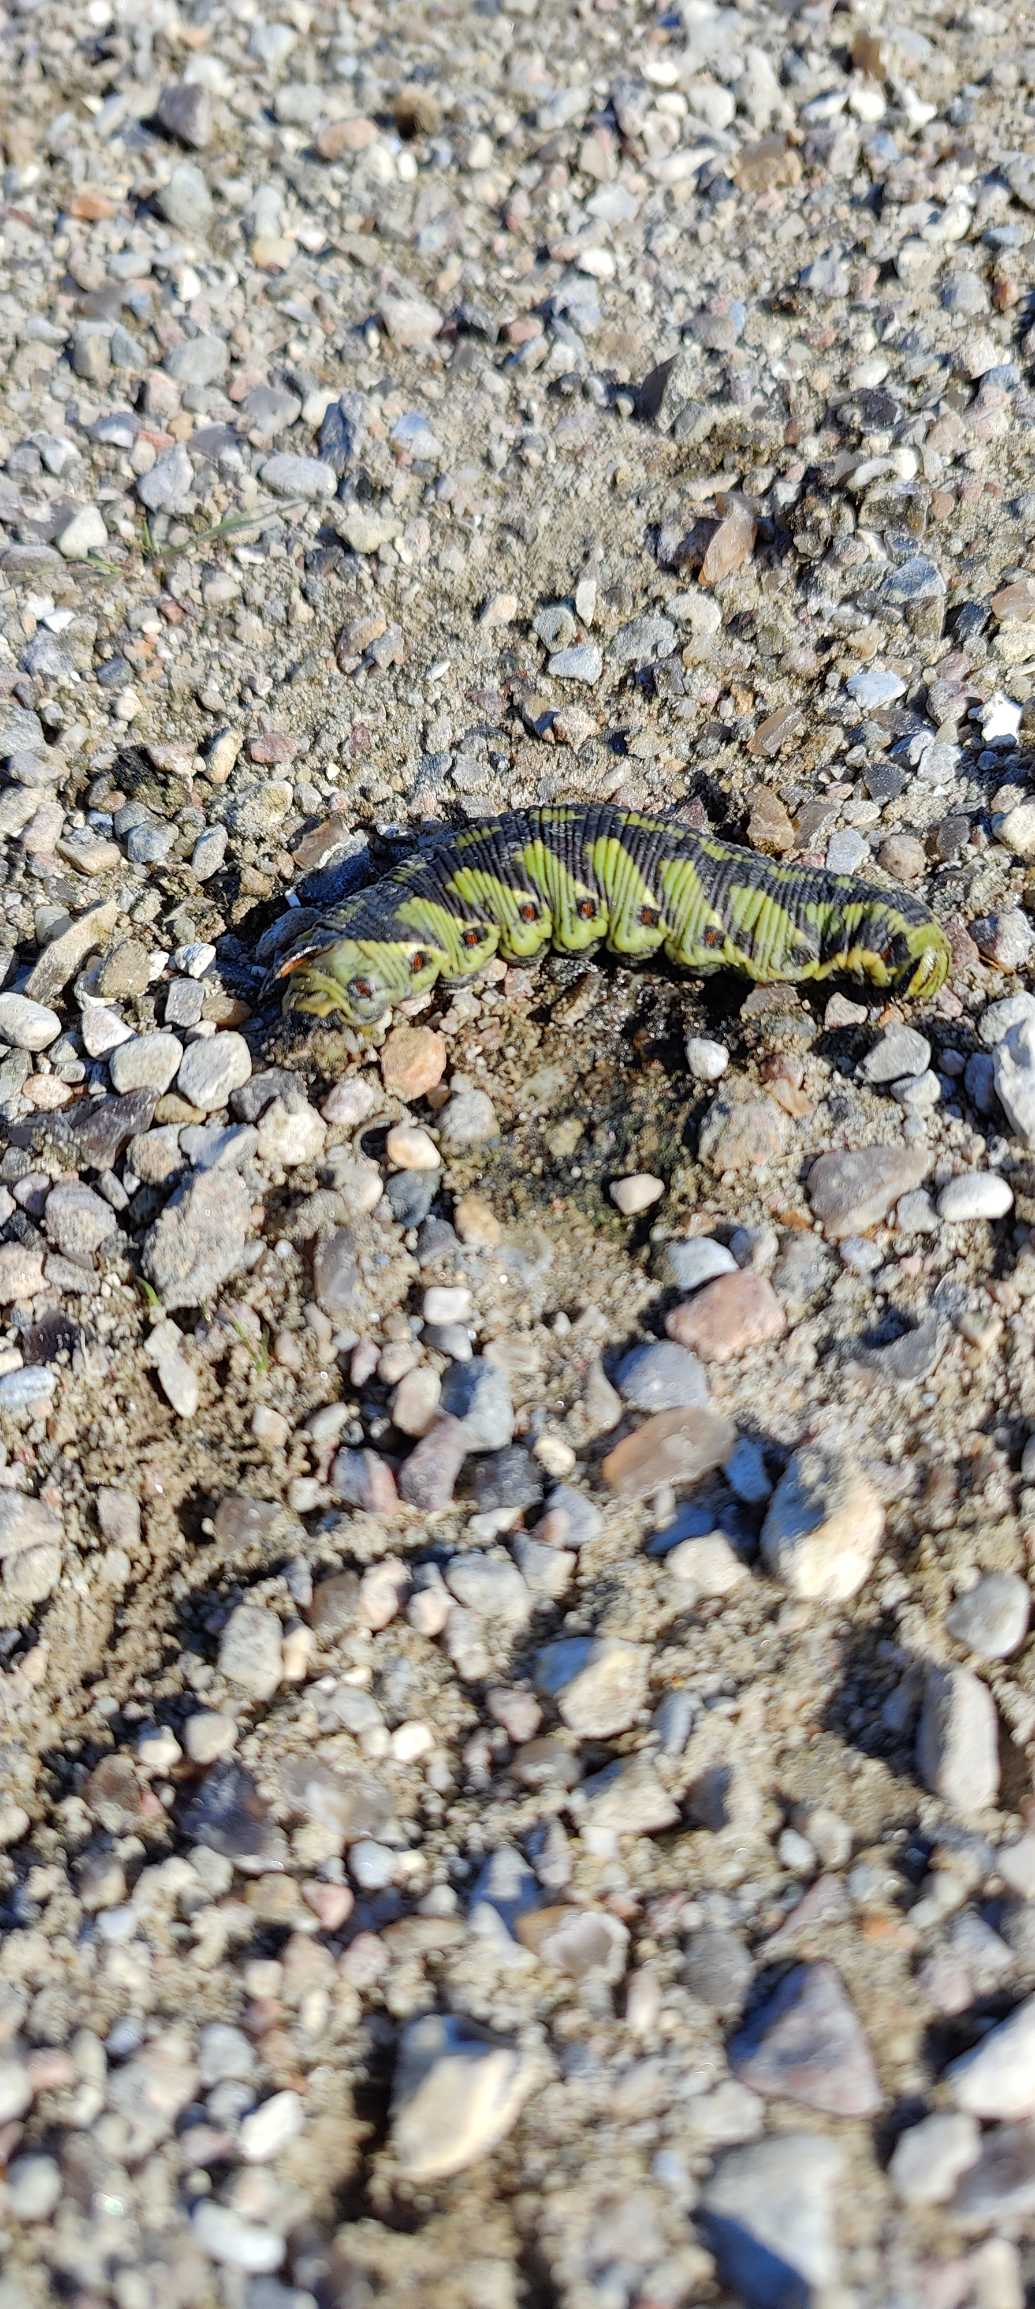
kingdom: Animalia
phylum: Arthropoda
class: Insecta
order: Lepidoptera
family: Sphingidae
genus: Agrius
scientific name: Agrius convolvuli
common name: Snerlesværmer
